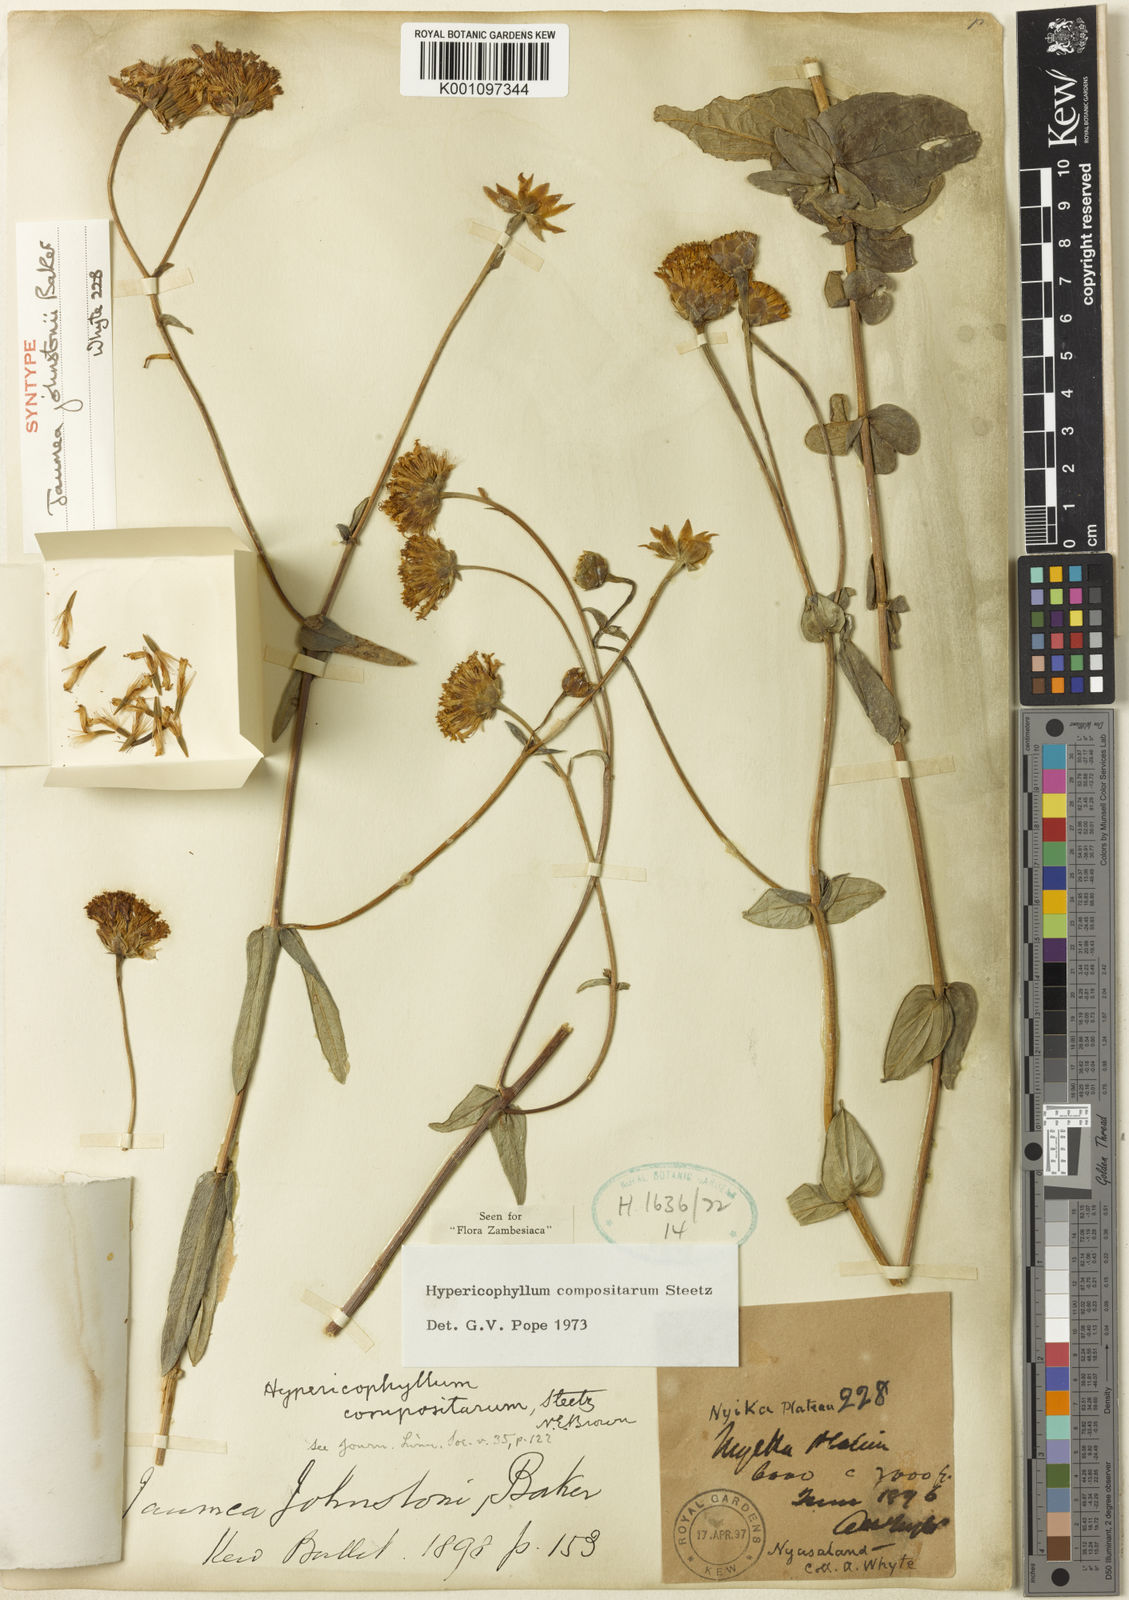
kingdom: Plantae
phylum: Tracheophyta
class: Magnoliopsida
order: Asterales
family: Asteraceae
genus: Hypericophyllum
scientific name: Hypericophyllum compositarum
